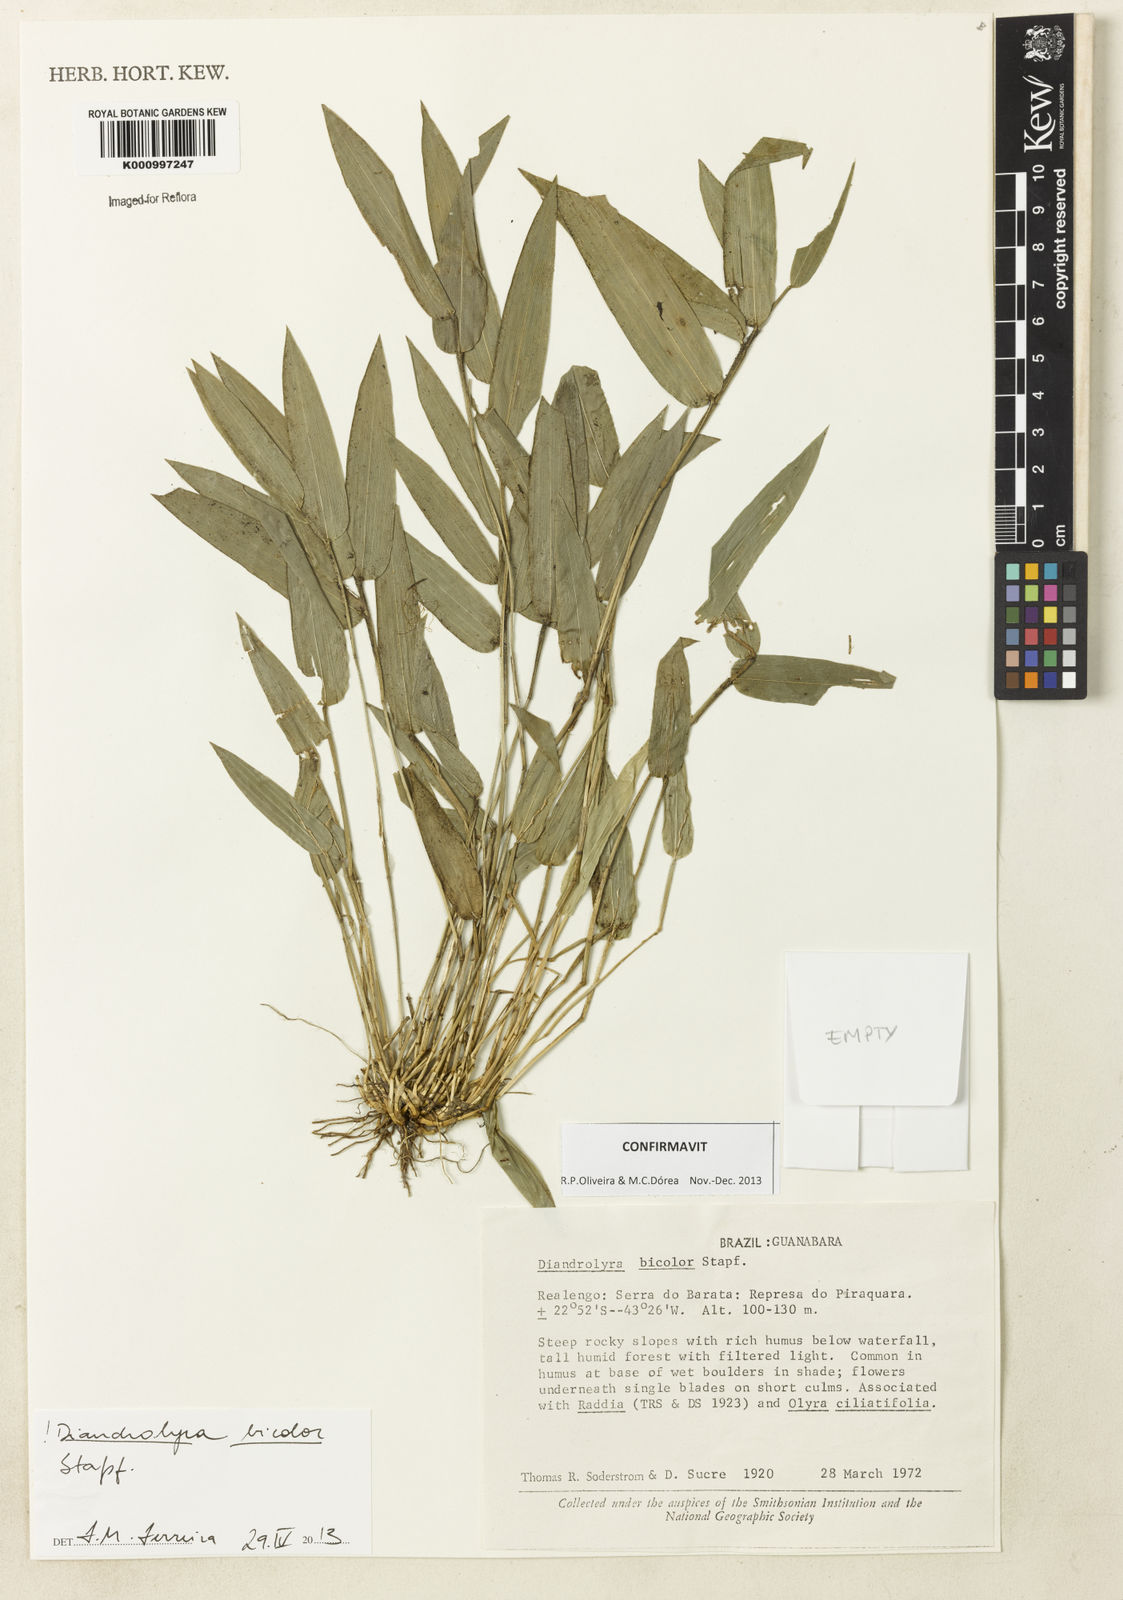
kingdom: Plantae
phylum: Tracheophyta
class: Liliopsida
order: Poales
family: Poaceae
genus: Diandrolyra
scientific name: Diandrolyra bicolor
